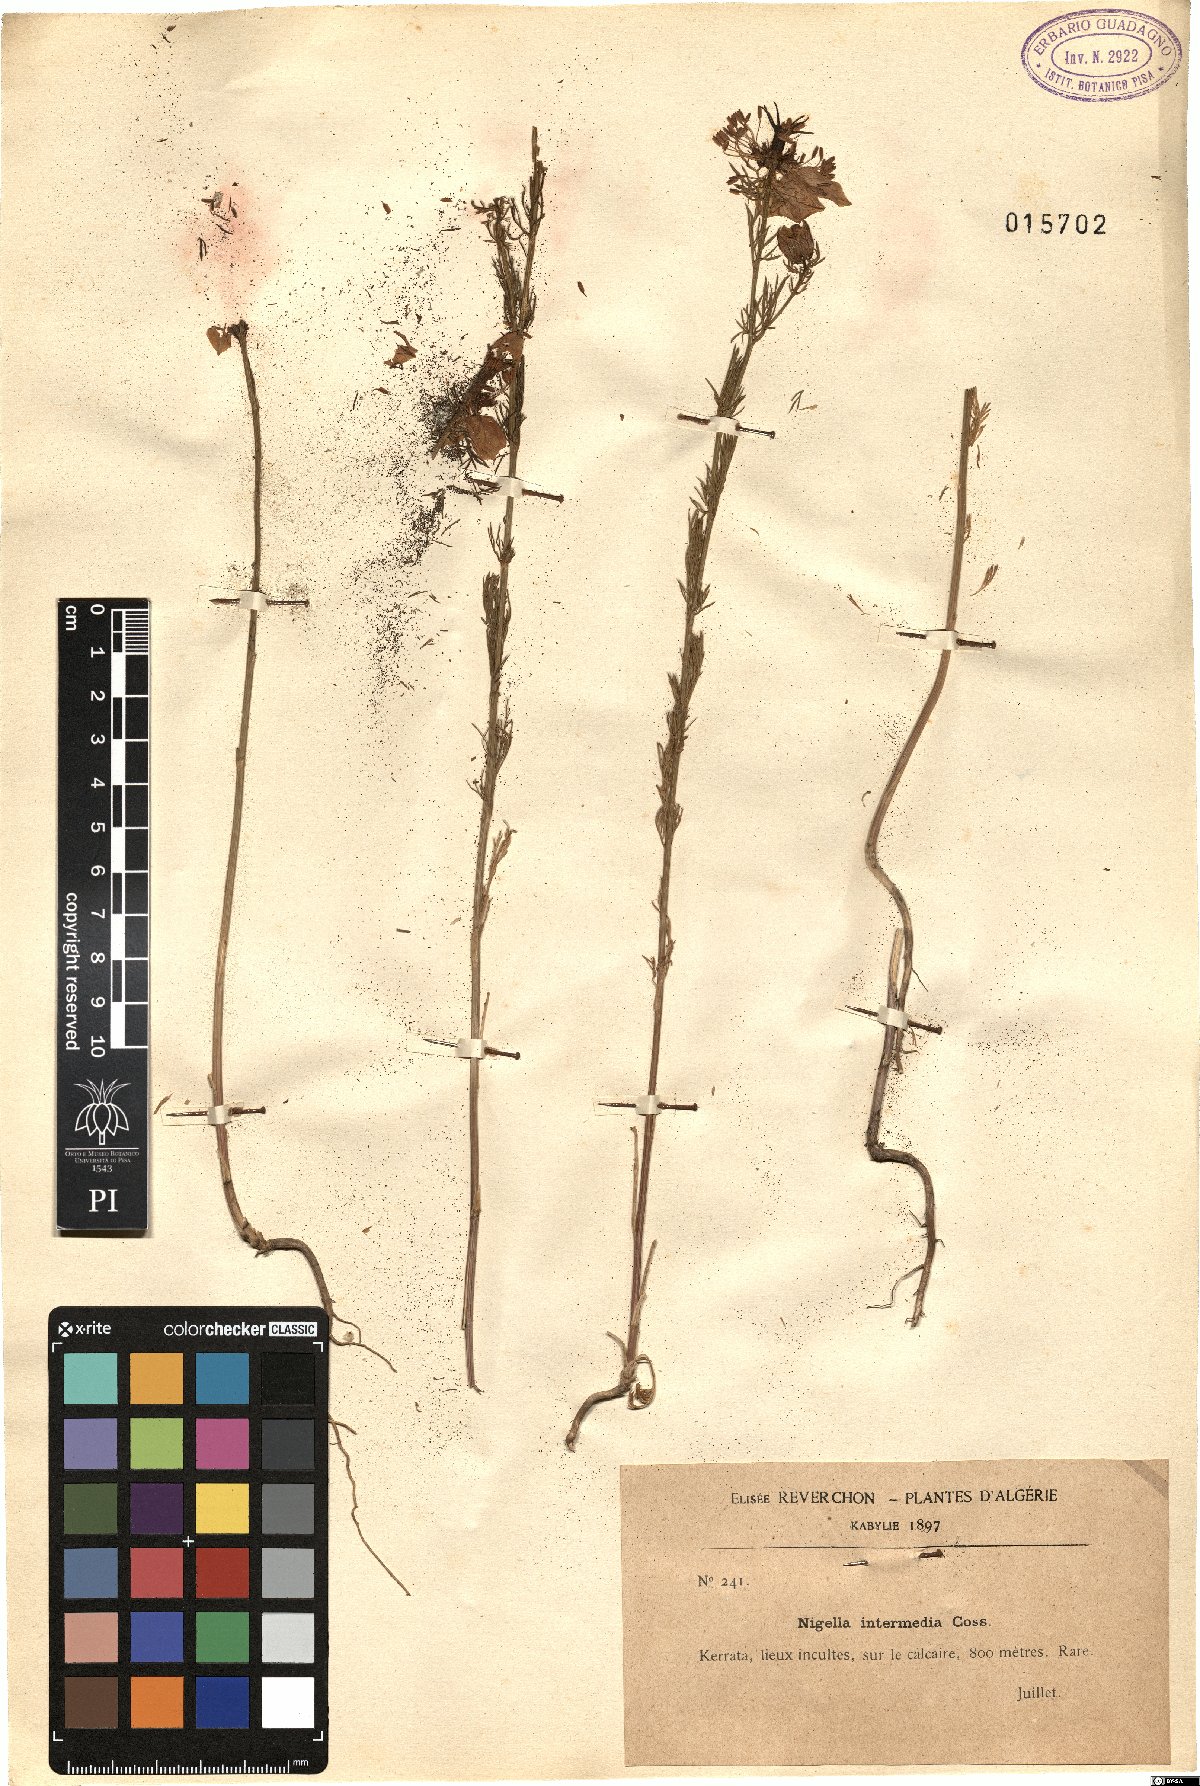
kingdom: Plantae
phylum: Tracheophyta
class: Magnoliopsida
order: Ranunculales
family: Ranunculaceae
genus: Nigella
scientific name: Nigella elata
